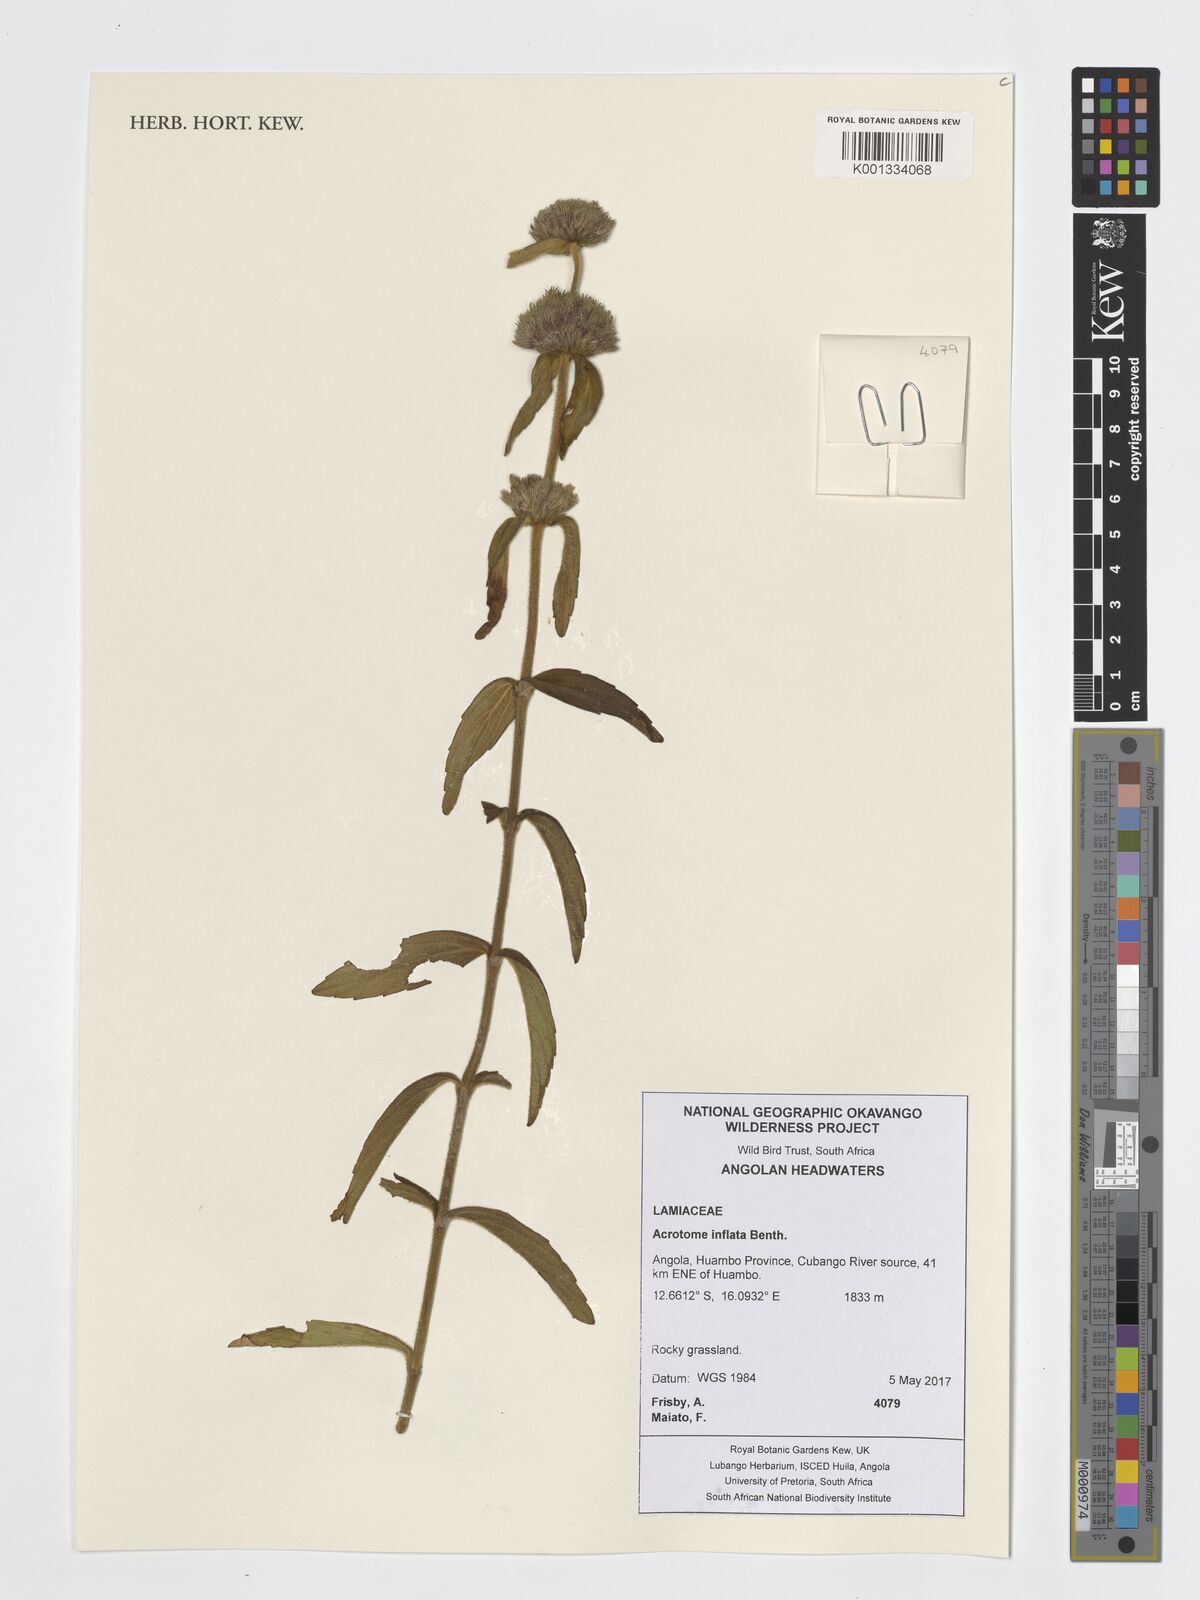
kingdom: Plantae
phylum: Tracheophyta
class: Magnoliopsida
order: Lamiales
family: Lamiaceae
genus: Acrotome
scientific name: Acrotome inflata
